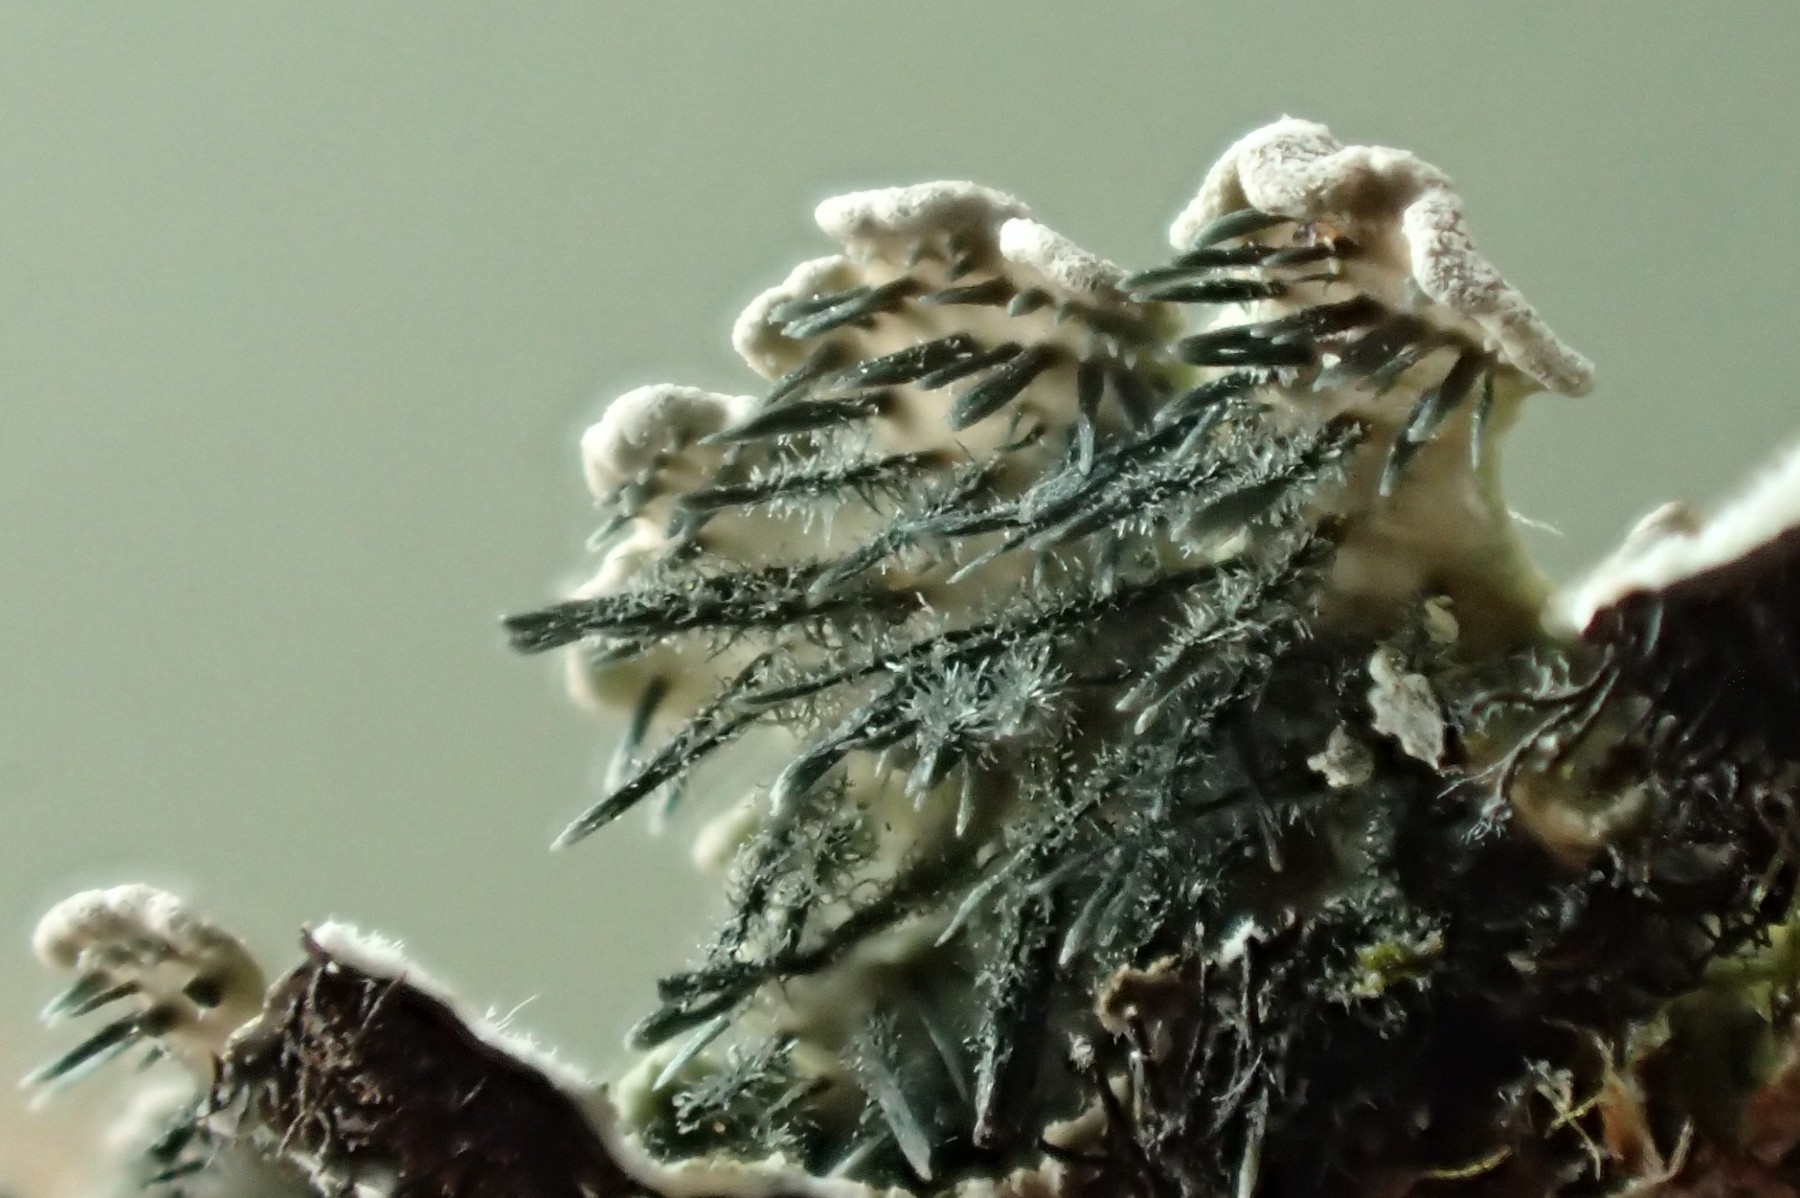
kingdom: Fungi
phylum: Ascomycota
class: Lecanoromycetes
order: Caliciales
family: Physciaceae
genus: Physconia
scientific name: Physconia enteroxantha
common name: grynet dugrosetlav
